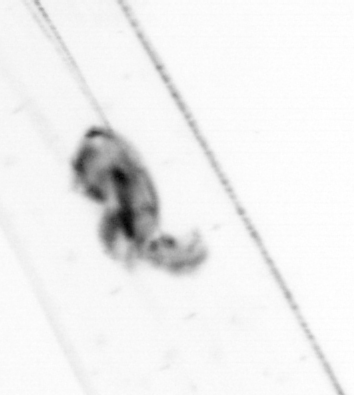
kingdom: Animalia
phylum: Chaetognatha
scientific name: Chaetognatha
